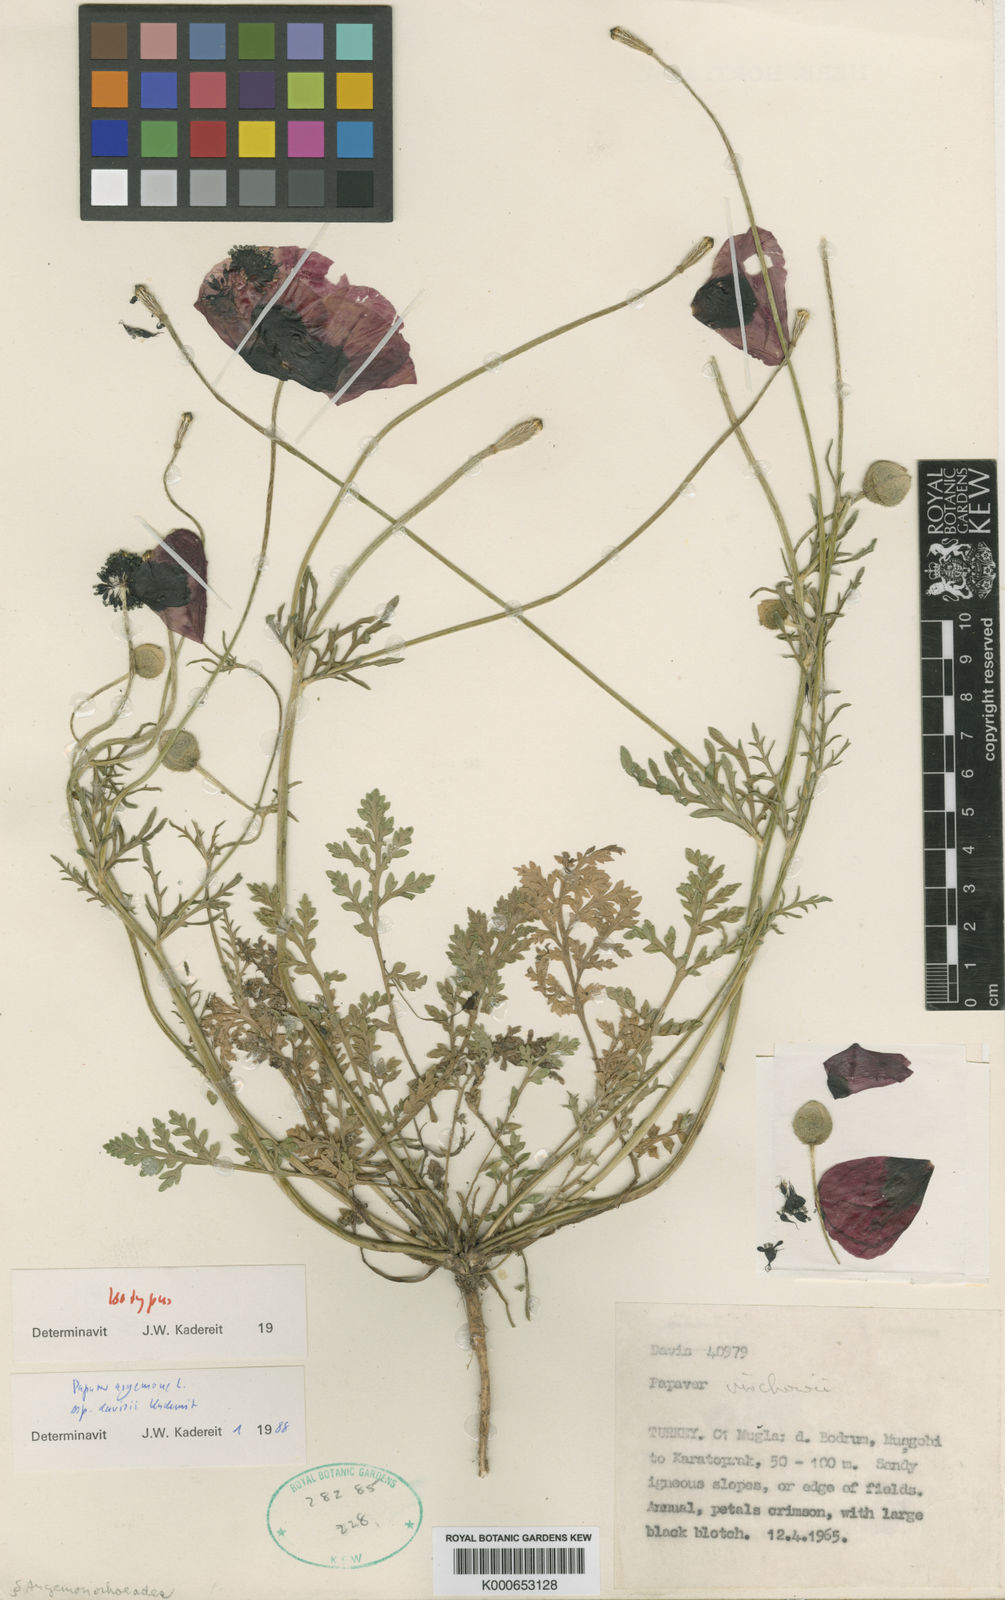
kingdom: Plantae
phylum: Tracheophyta
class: Magnoliopsida
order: Ranunculales
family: Papaveraceae
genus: Roemeria
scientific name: Roemeria argemone
